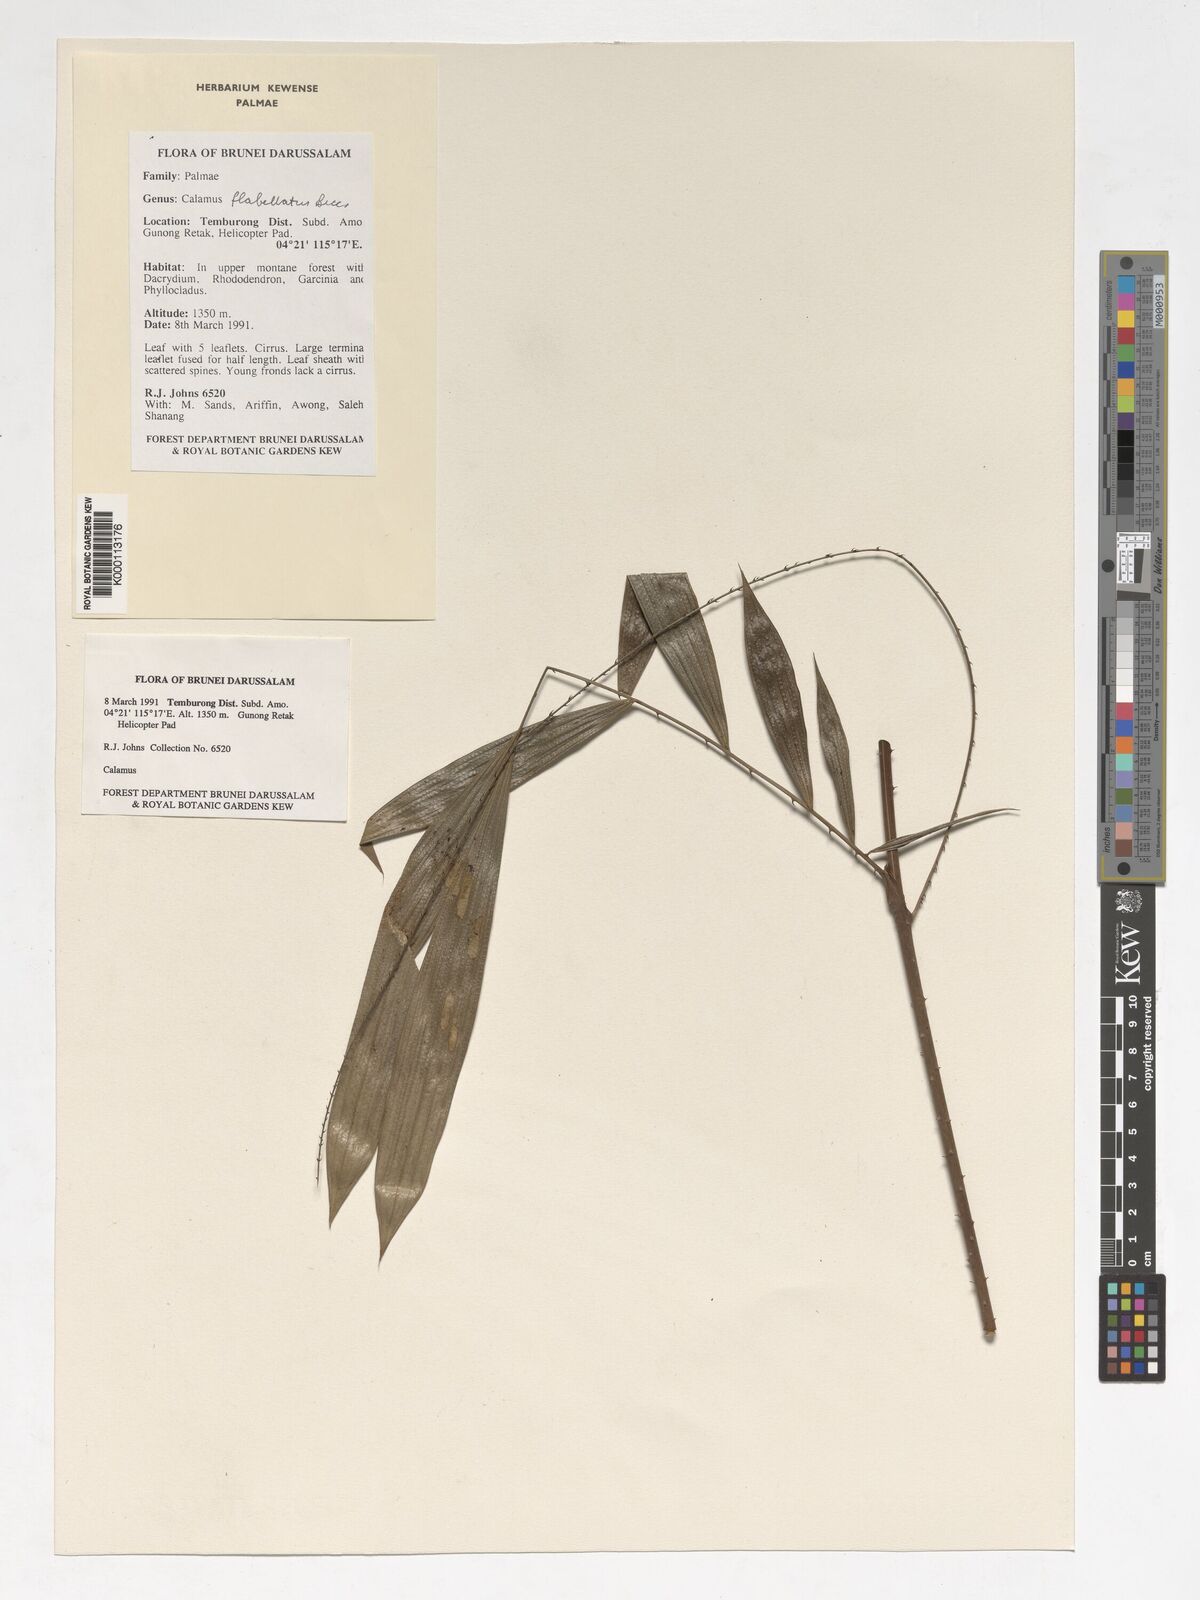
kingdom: Plantae
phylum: Tracheophyta
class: Liliopsida
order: Arecales
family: Arecaceae
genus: Calamus
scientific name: Calamus flabellatus
